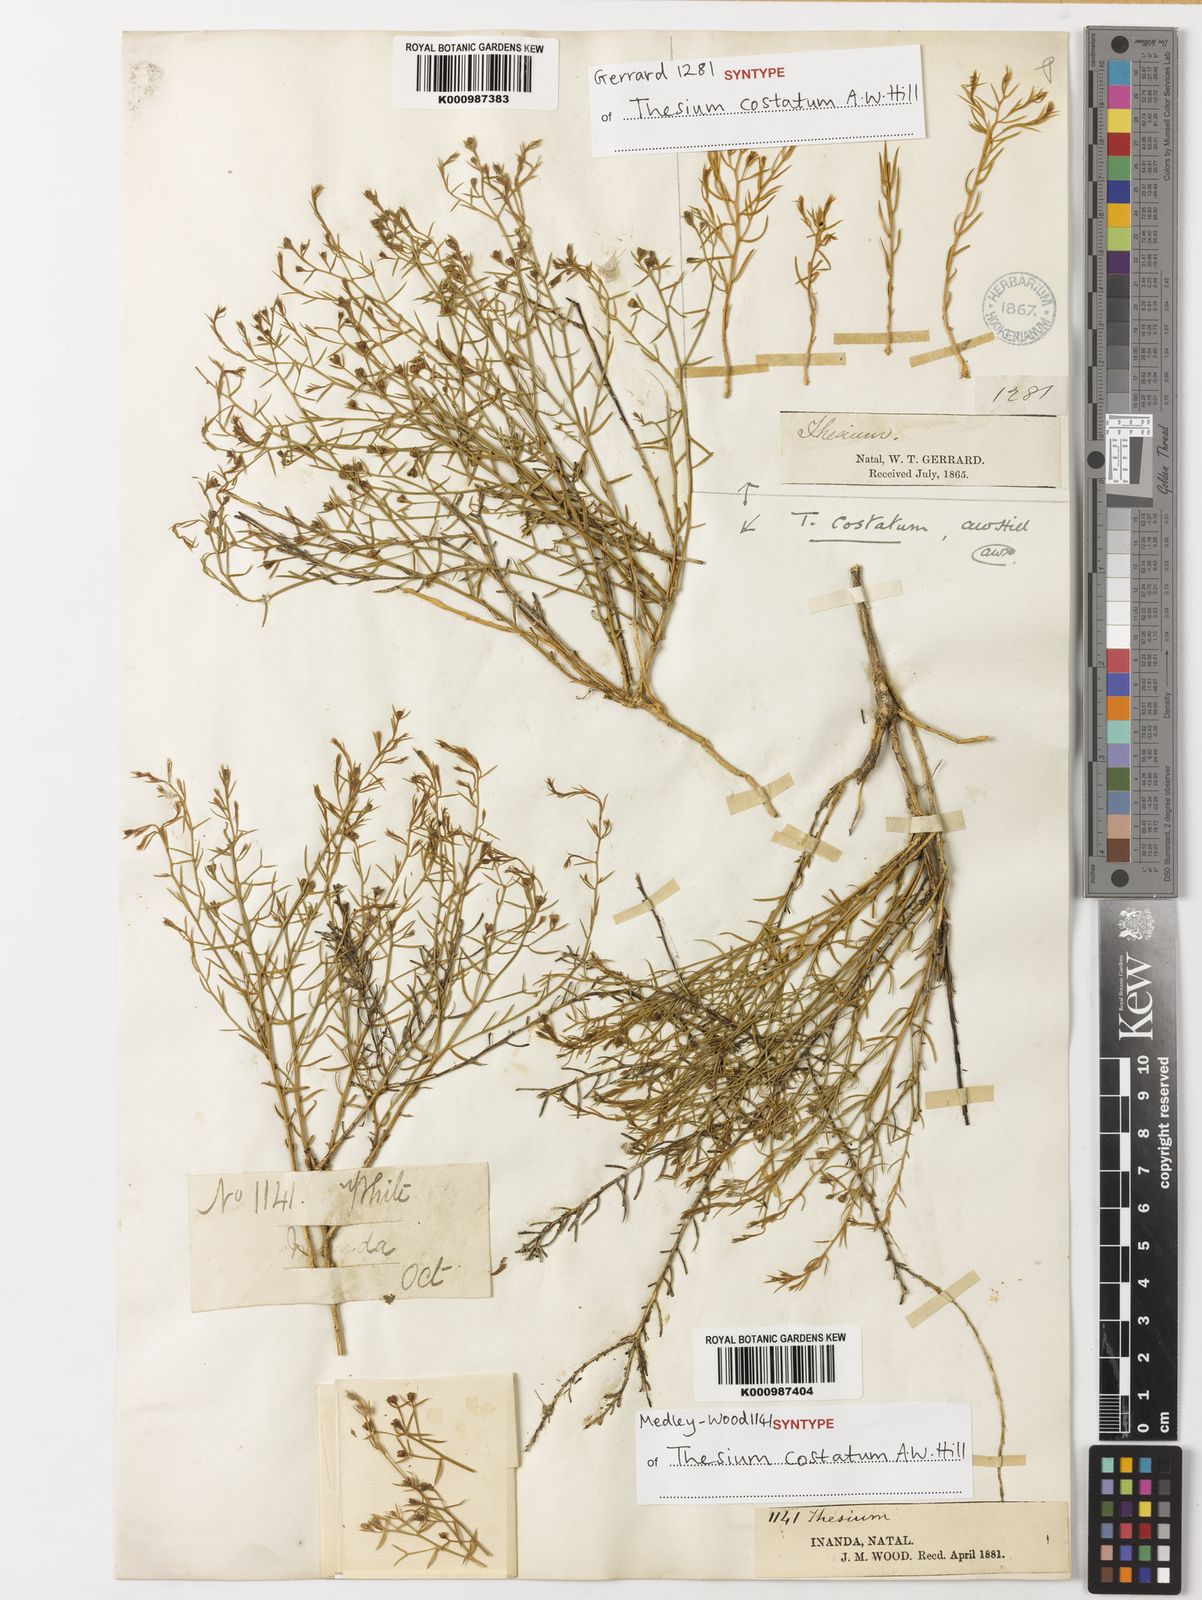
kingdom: Plantae
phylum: Tracheophyta
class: Magnoliopsida
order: Santalales
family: Thesiaceae
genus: Thesium
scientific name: Thesium costatum
